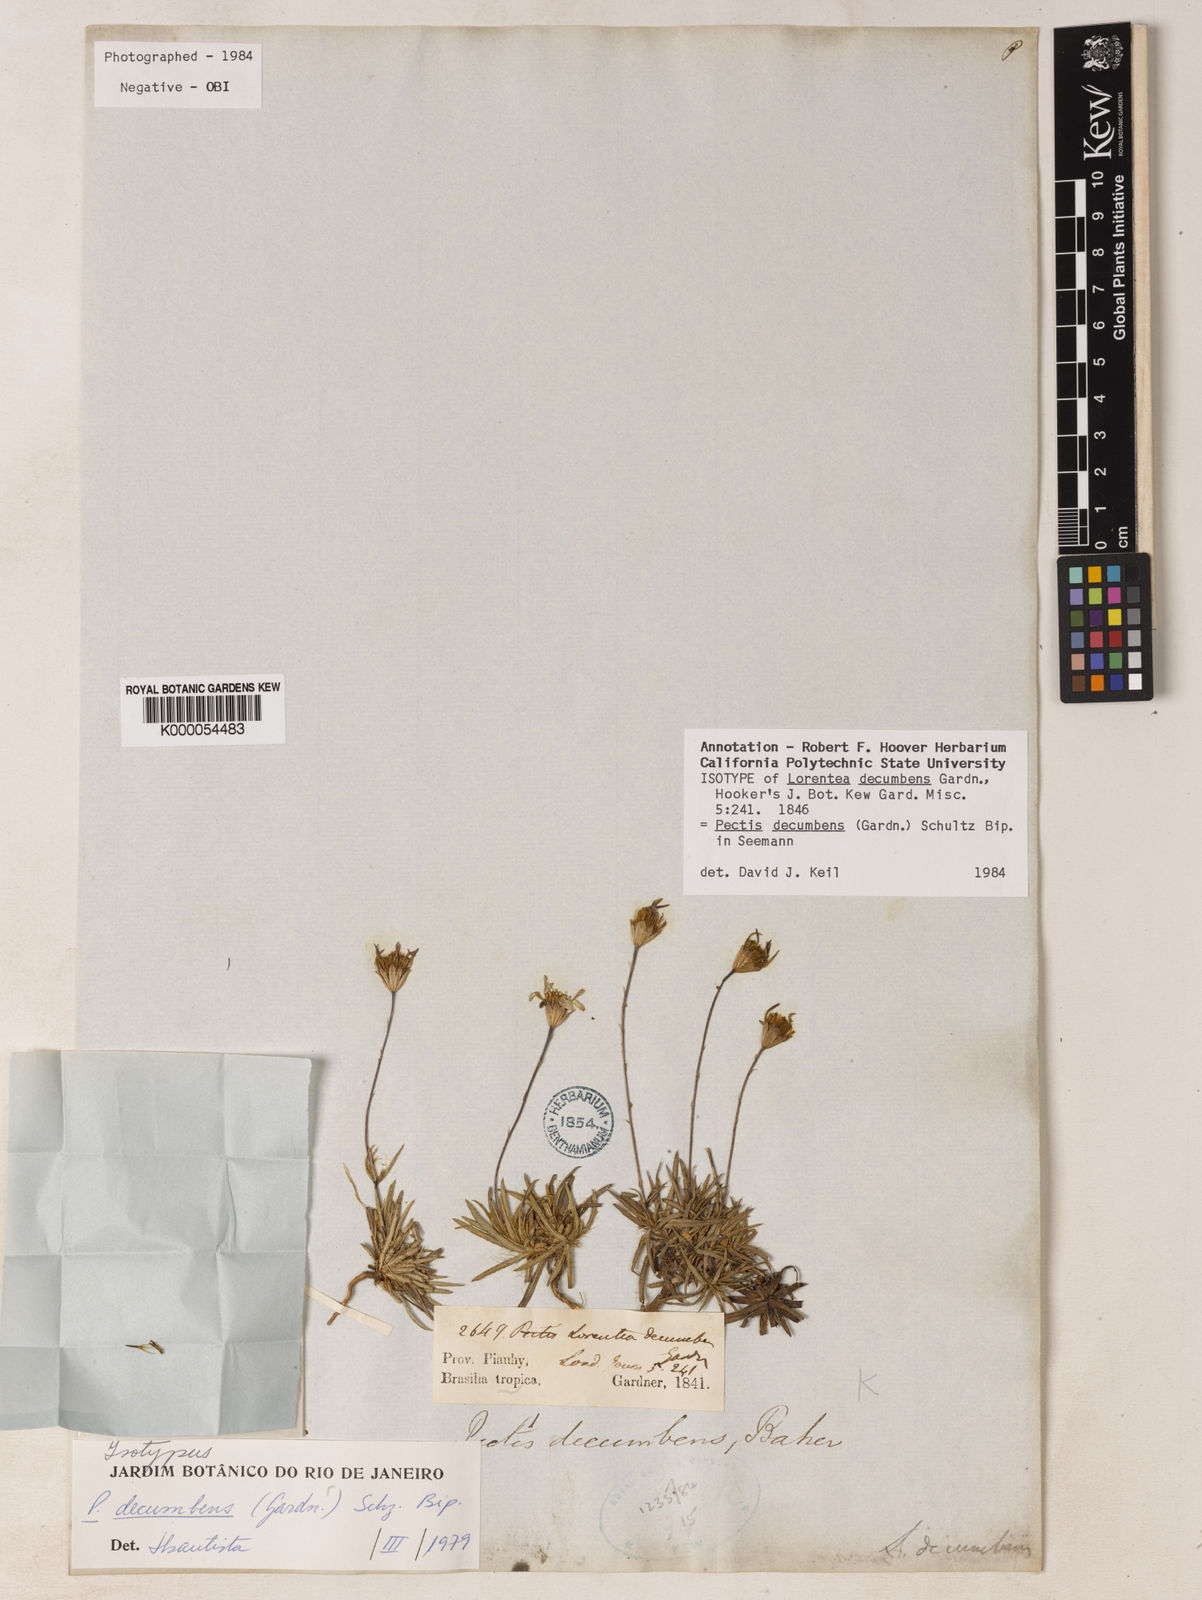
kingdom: Plantae
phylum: Tracheophyta
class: Magnoliopsida
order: Asterales
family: Asteraceae
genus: Pectis
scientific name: Pectis decumbens
